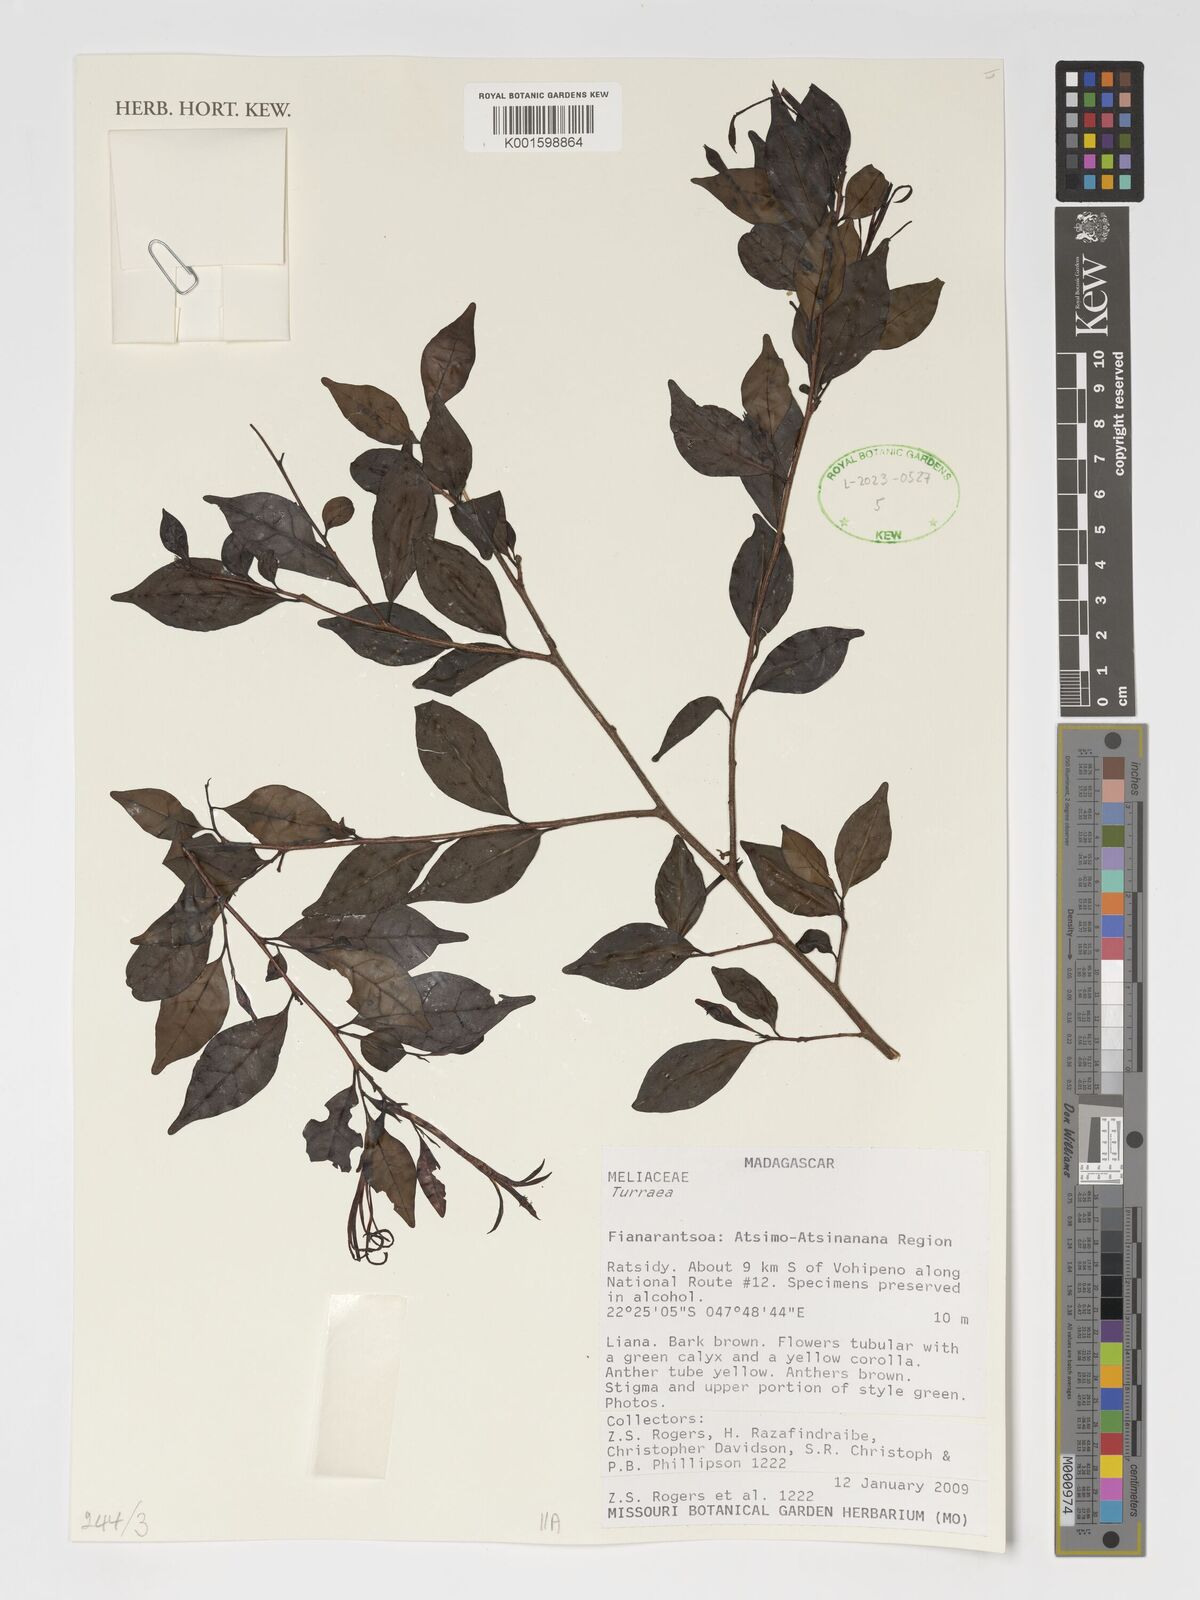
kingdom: Plantae
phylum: Tracheophyta
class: Magnoliopsida
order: Sapindales
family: Meliaceae
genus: Turraea
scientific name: Turraea
